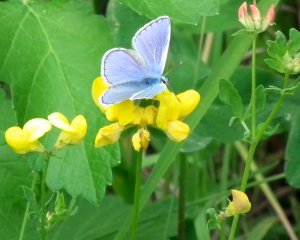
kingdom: Animalia
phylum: Arthropoda
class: Insecta
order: Lepidoptera
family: Lycaenidae
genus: Cyaniris
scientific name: Cyaniris neglecta
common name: Summer Azure
